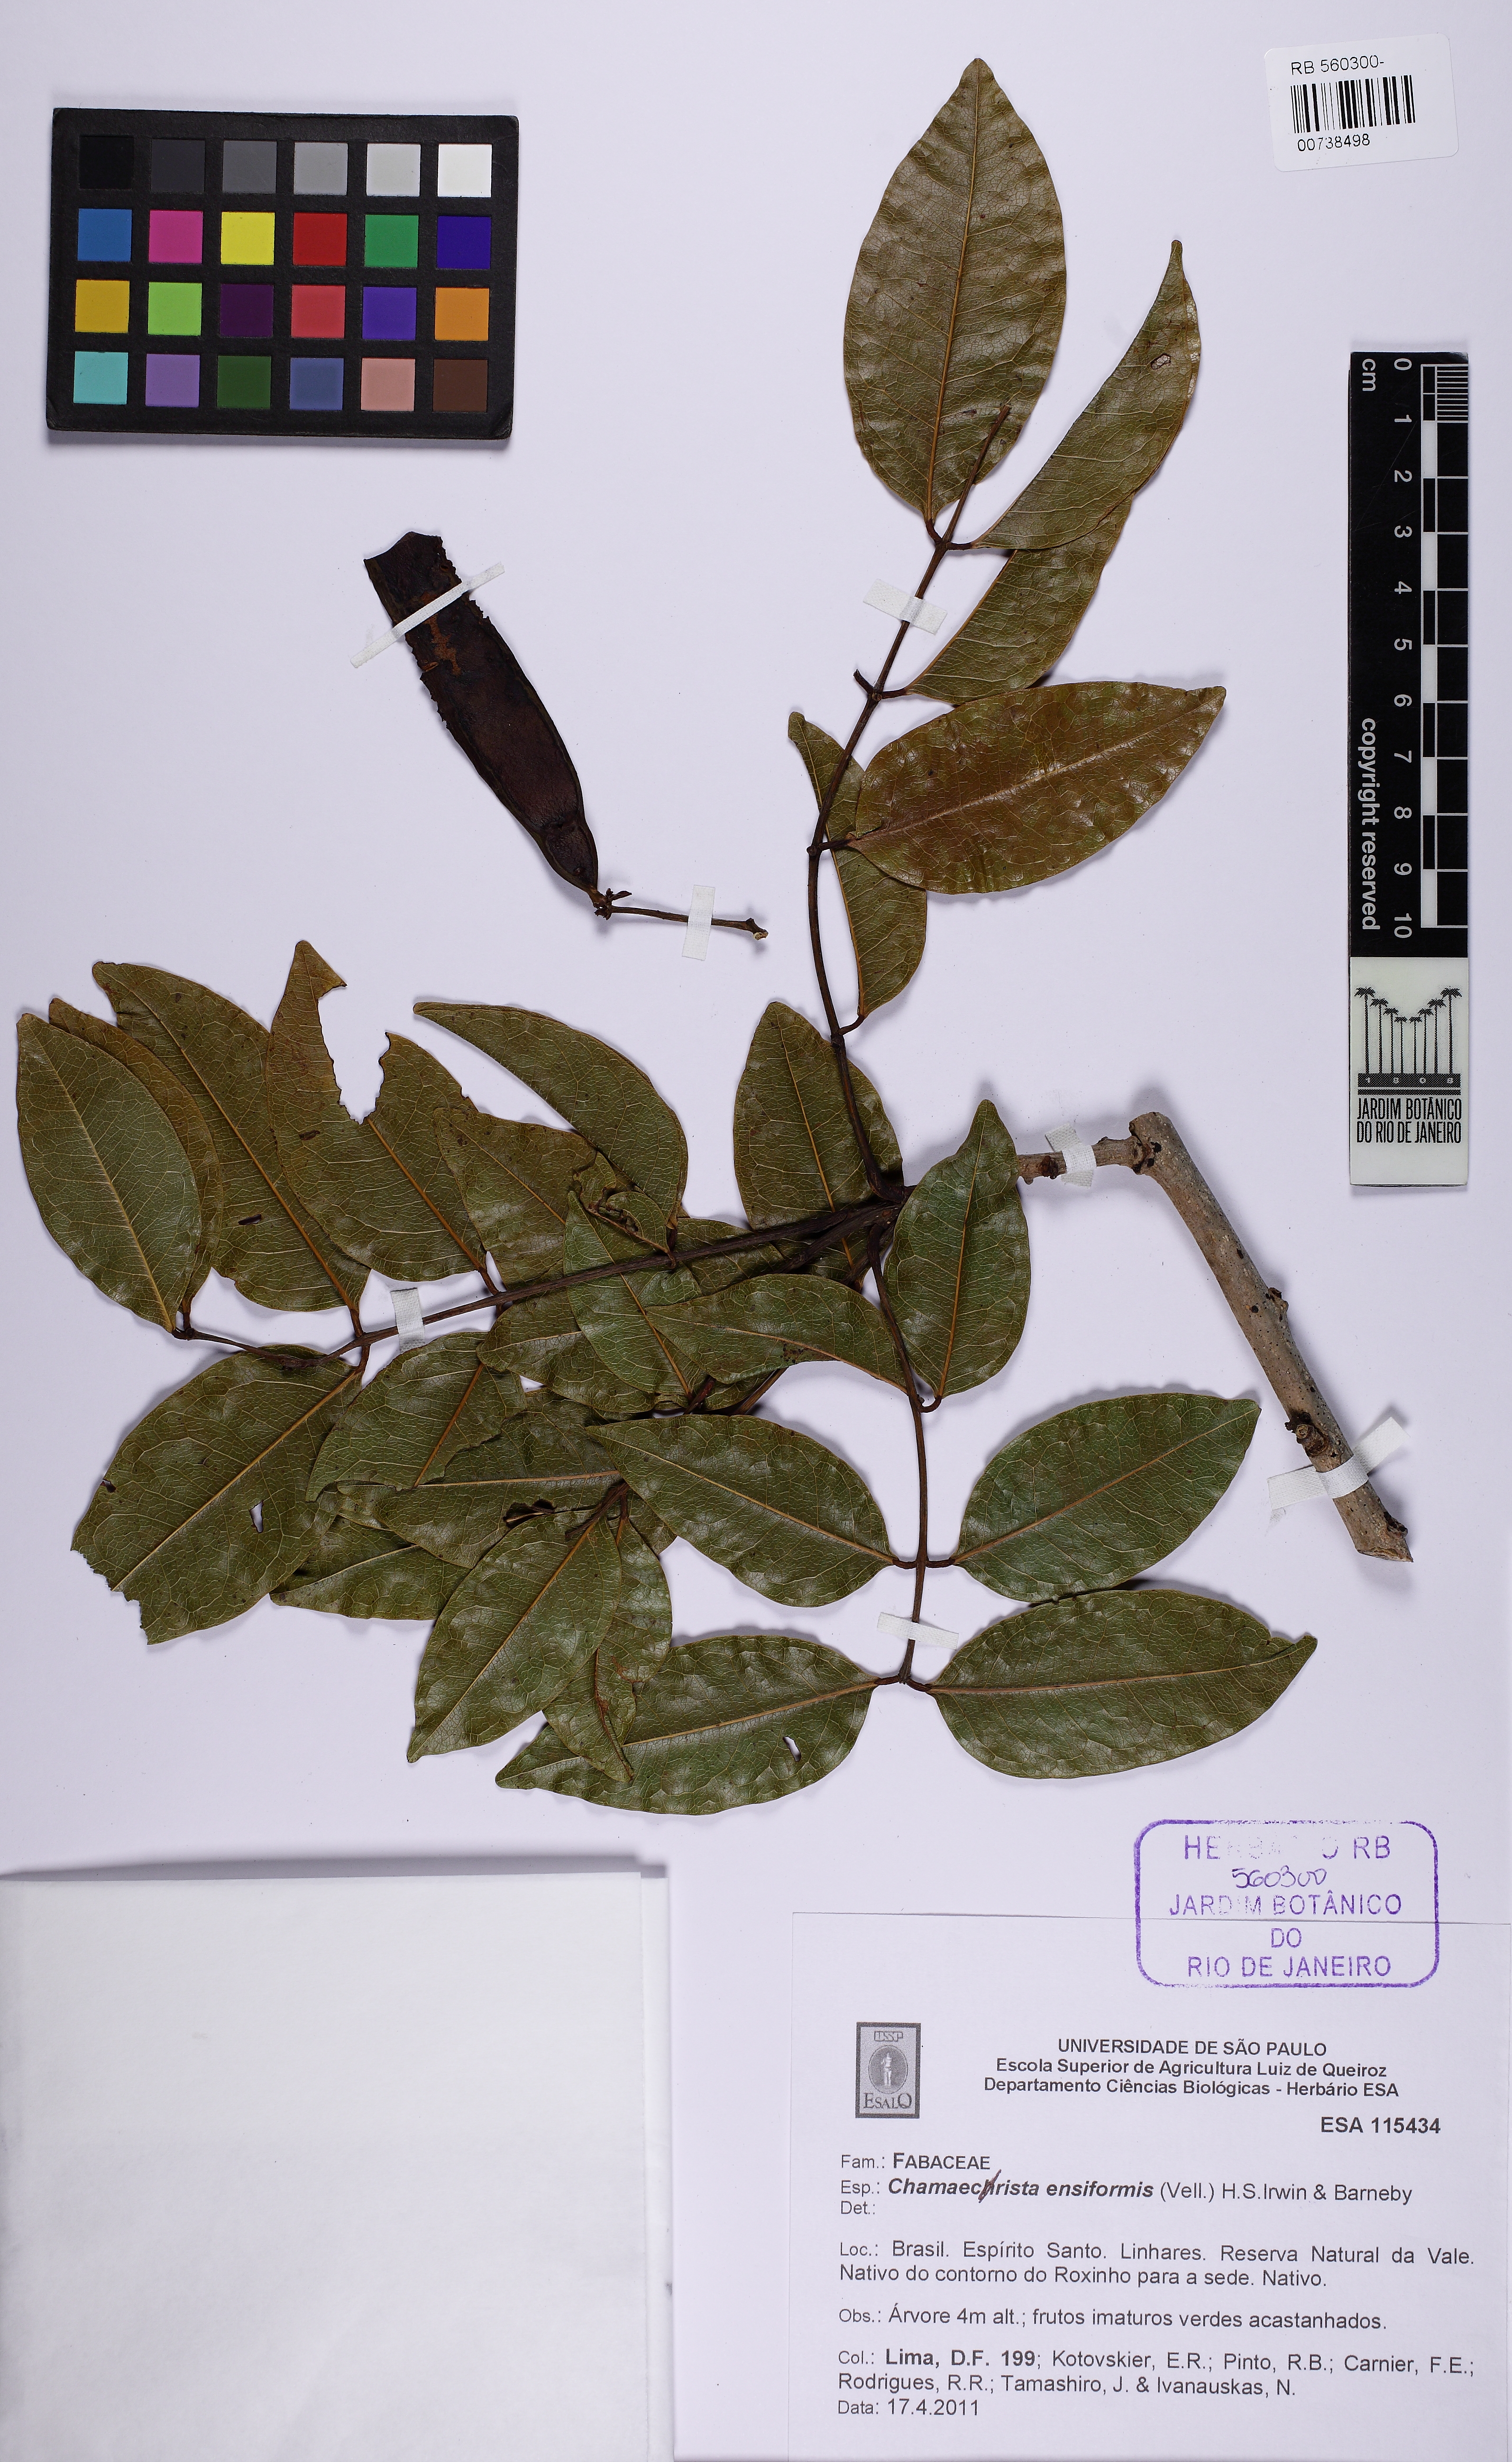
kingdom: Plantae
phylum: Tracheophyta
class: Magnoliopsida
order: Fabales
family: Fabaceae
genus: Chamaecrista
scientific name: Chamaecrista ensiformis
